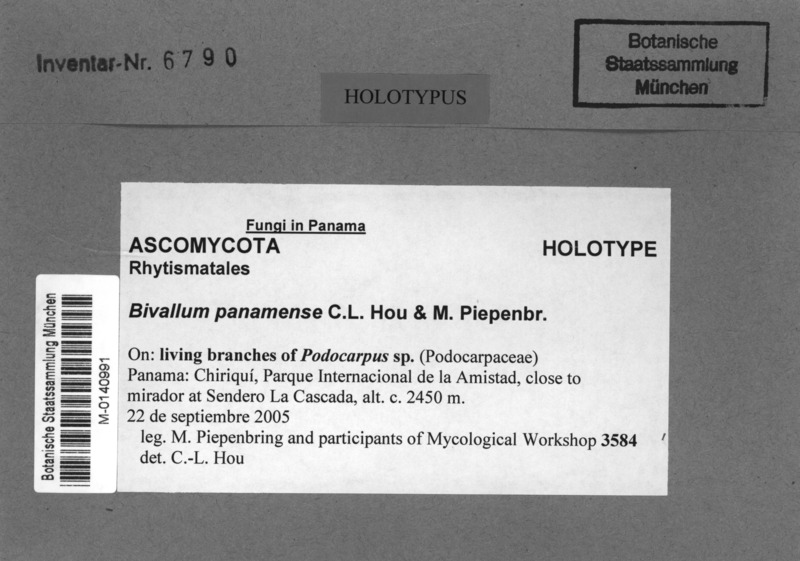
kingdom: Plantae
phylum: Tracheophyta
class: Pinopsida
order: Pinales
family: Podocarpaceae
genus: Podocarpus
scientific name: Podocarpus
